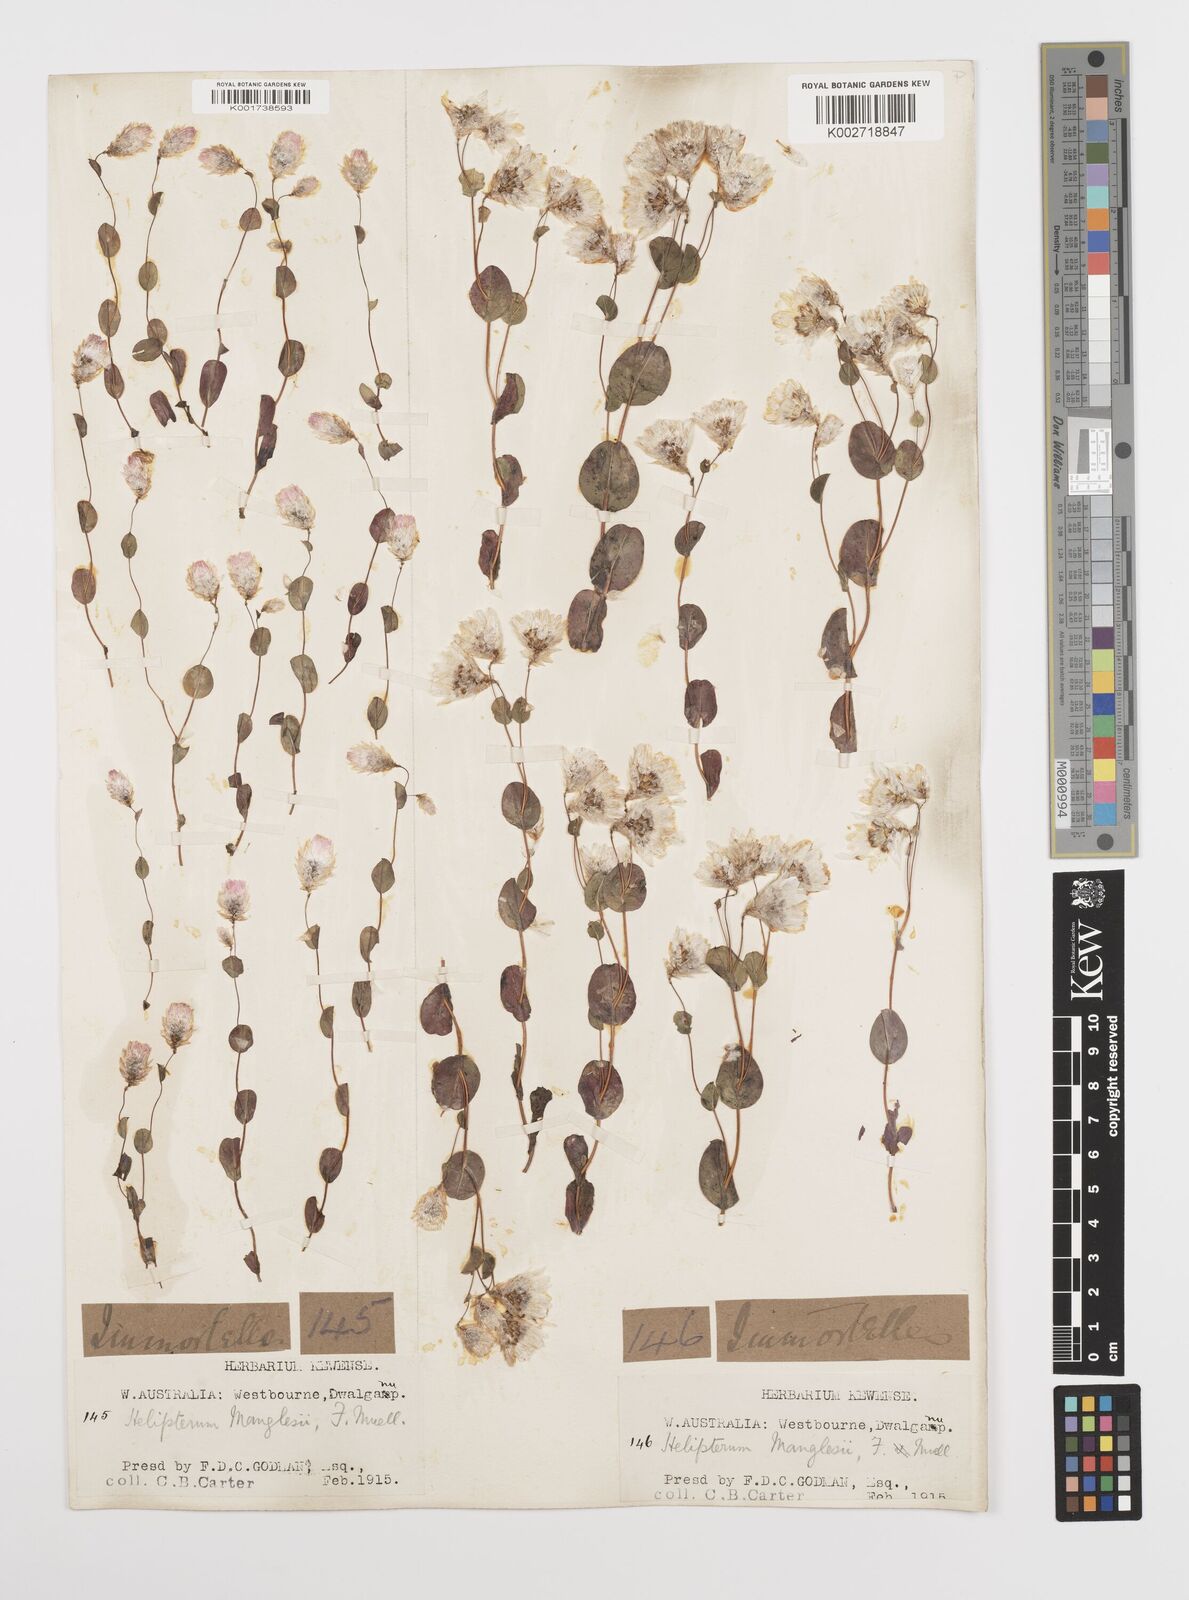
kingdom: Plantae
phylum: Tracheophyta
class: Magnoliopsida
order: Asterales
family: Asteraceae
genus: Rhodanthe
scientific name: Rhodanthe manglesii
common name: Pink sunray
